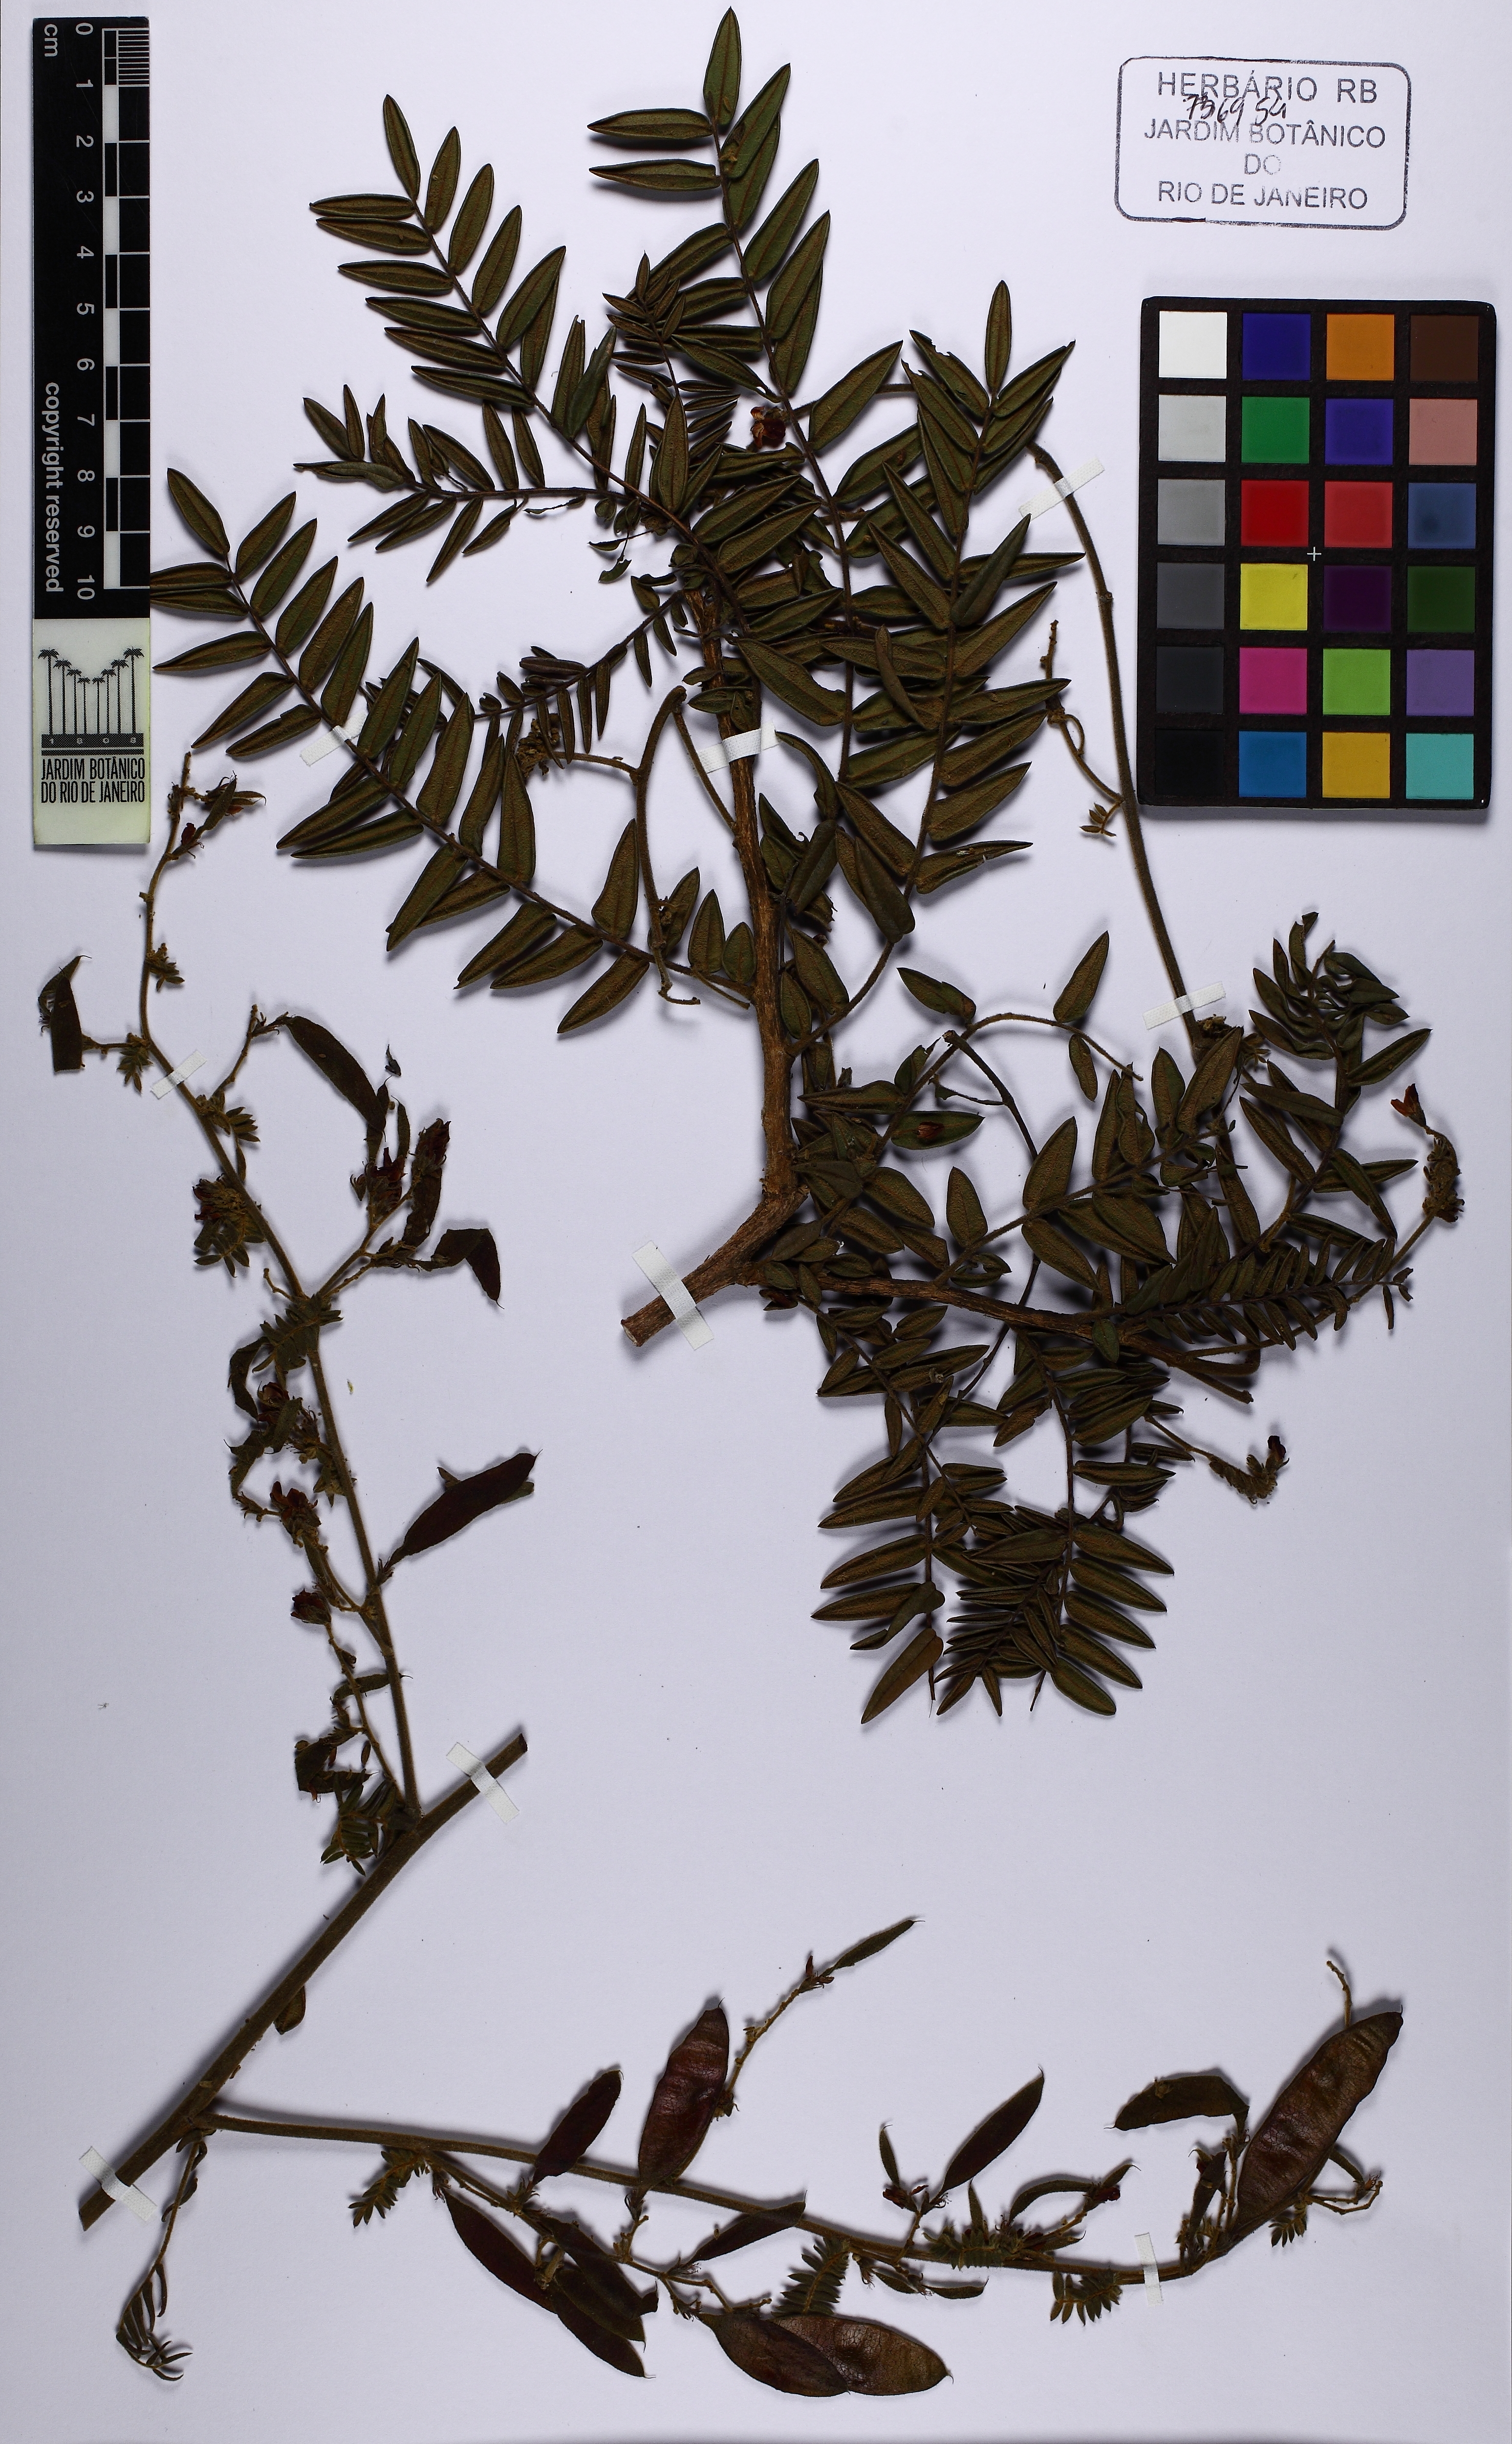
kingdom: Plantae
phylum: Tracheophyta
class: Magnoliopsida
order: Fabales
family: Fabaceae
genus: Dalbergia
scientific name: Dalbergia acuta
